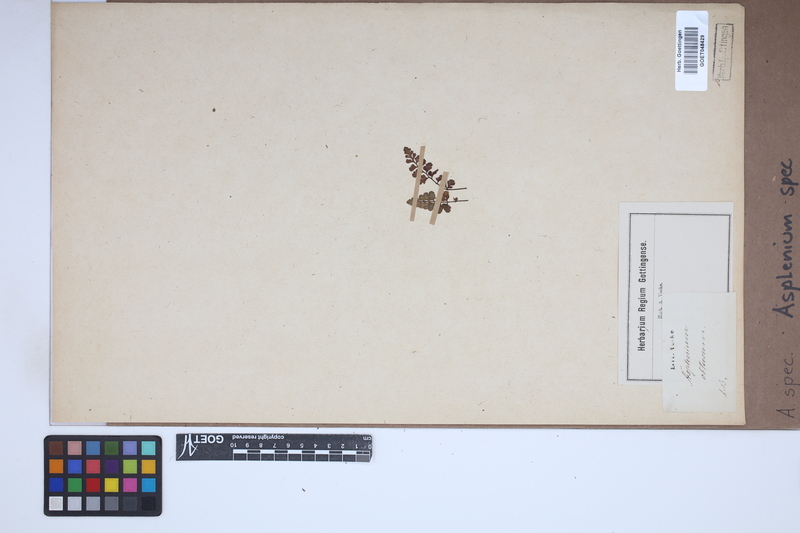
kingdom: Plantae
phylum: Tracheophyta
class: Polypodiopsida
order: Polypodiales
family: Aspleniaceae
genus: Asplenium
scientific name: Asplenium
